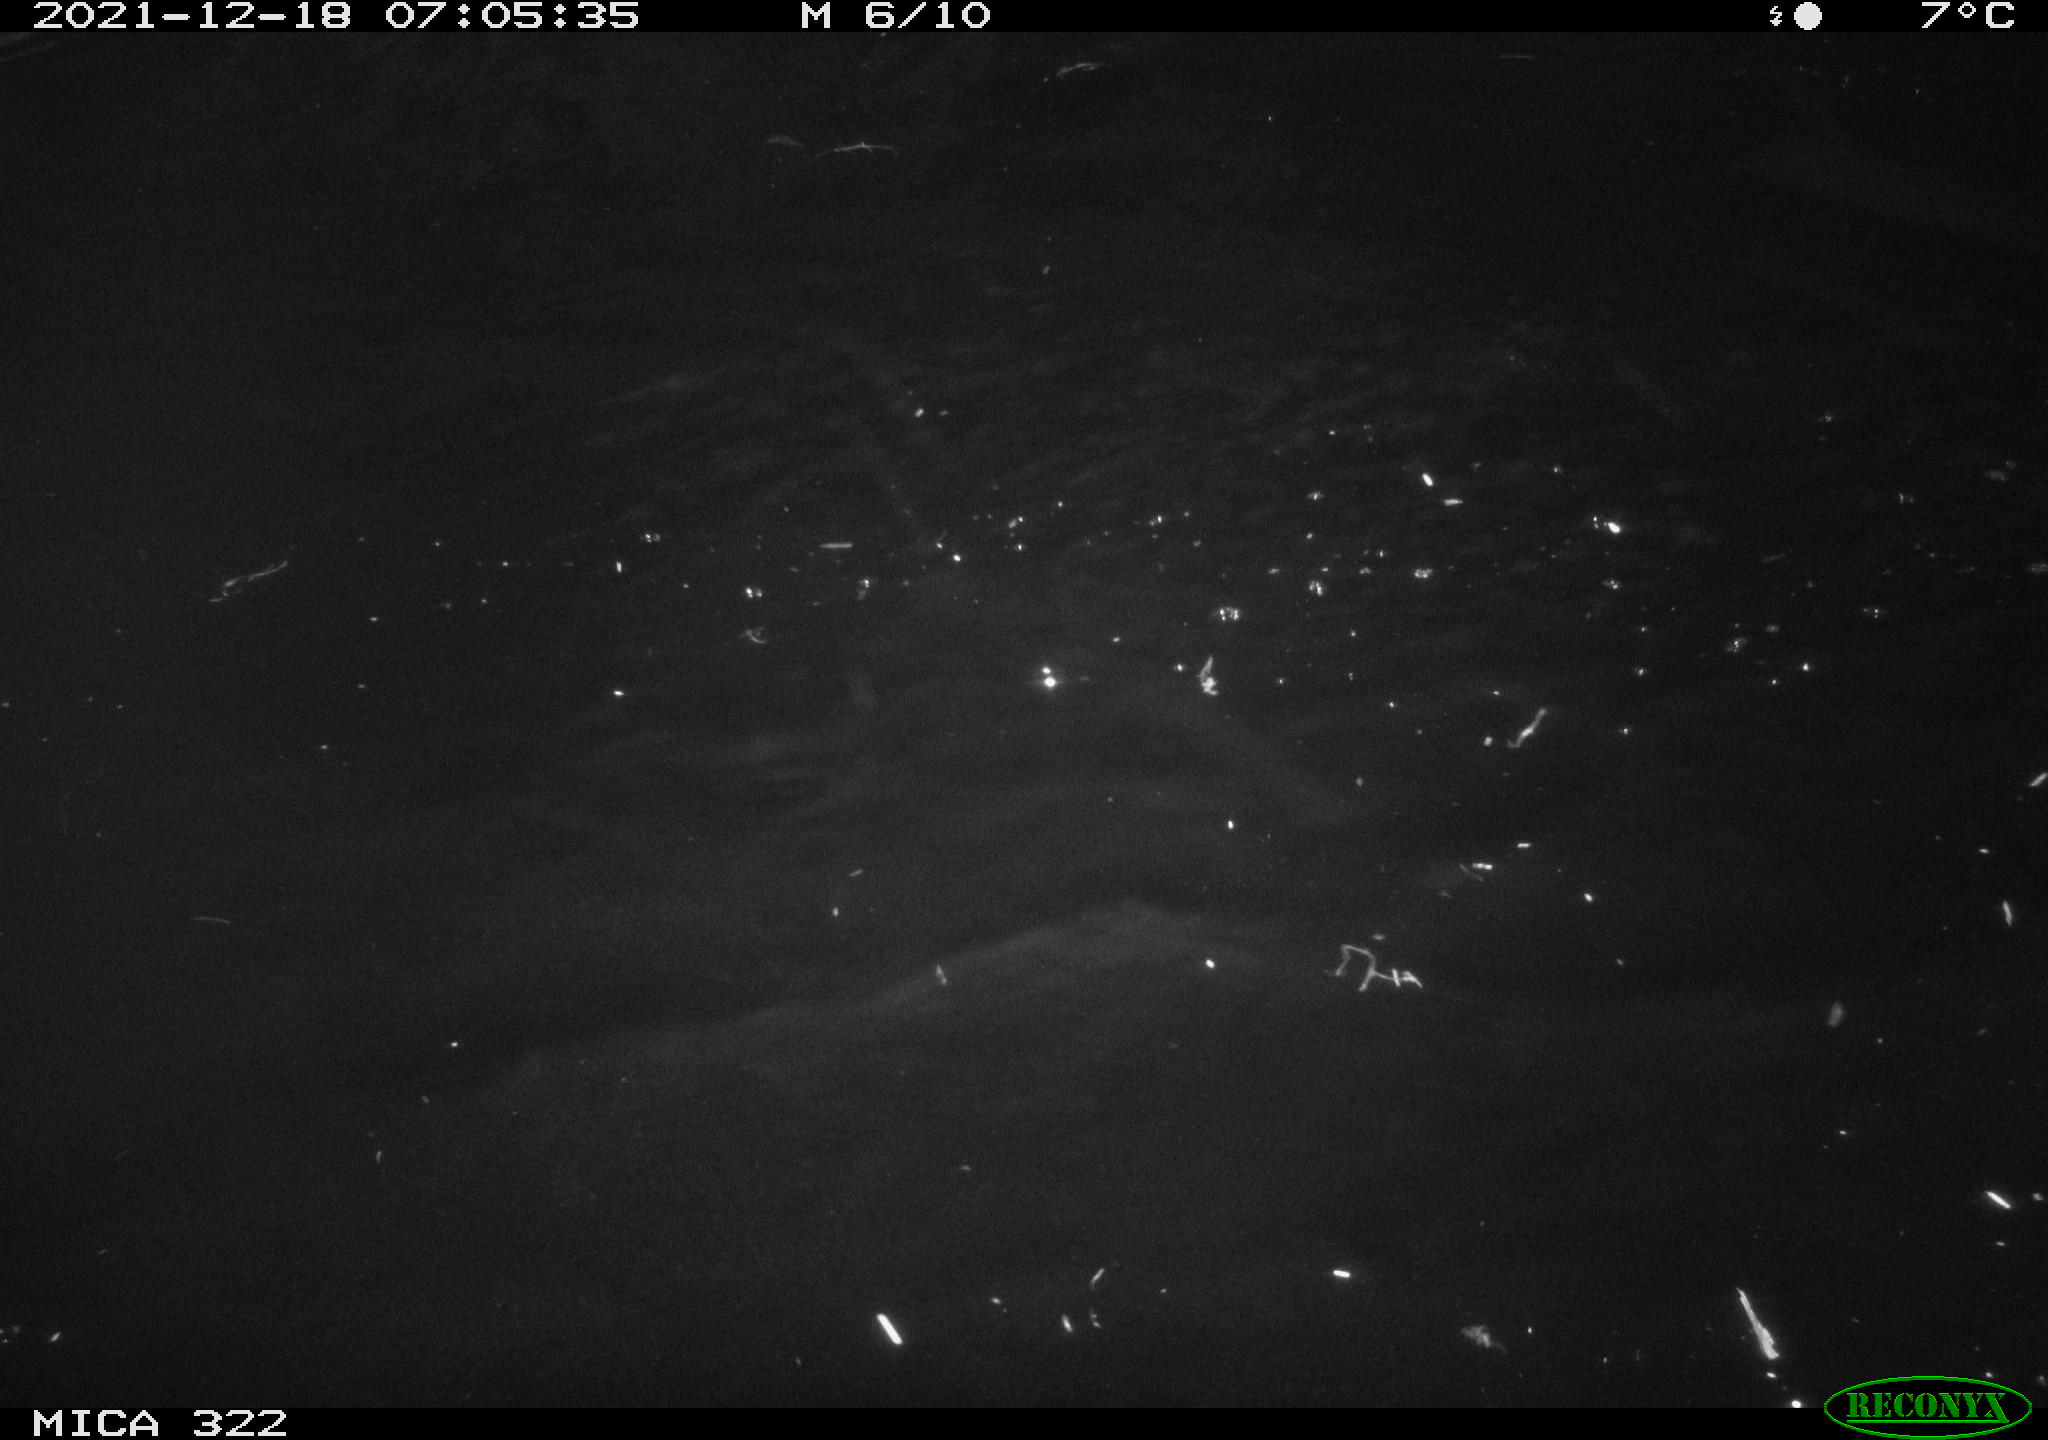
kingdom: Animalia
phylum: Chordata
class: Aves
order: Anseriformes
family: Anatidae
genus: Anas
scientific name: Anas platyrhynchos
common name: Mallard
